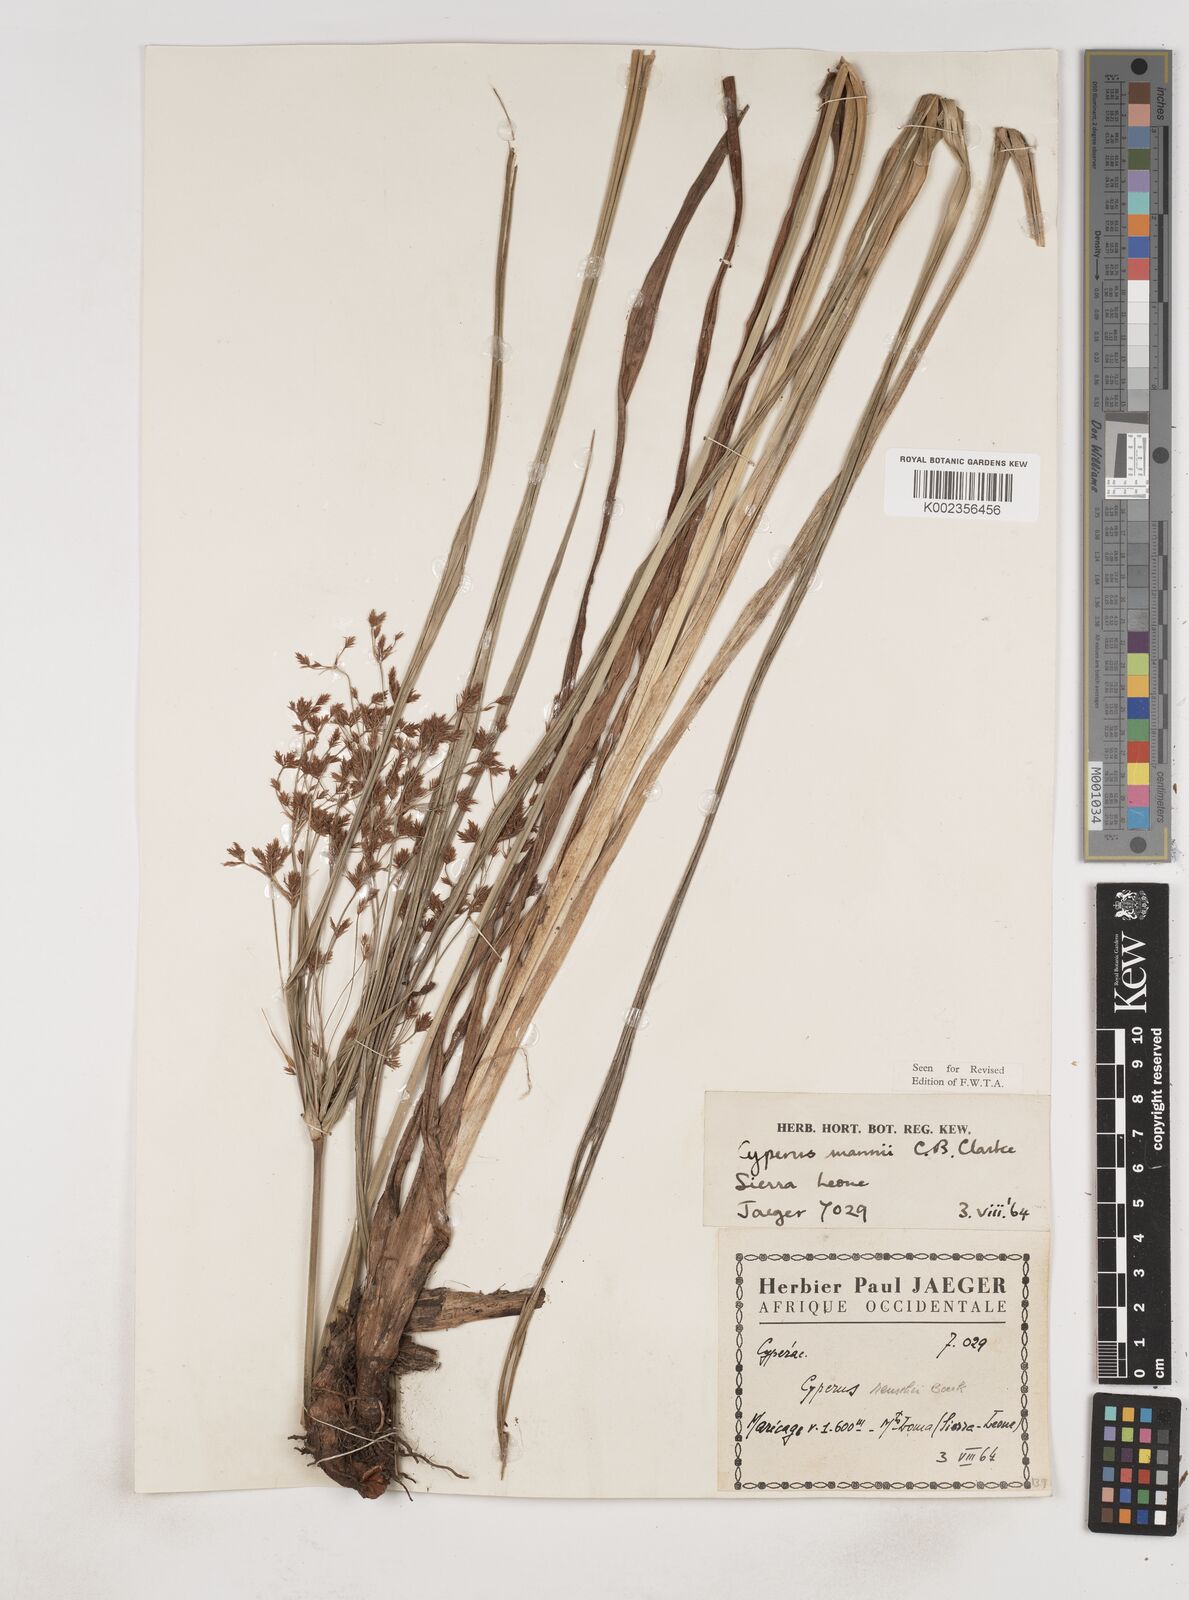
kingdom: Plantae
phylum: Tracheophyta
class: Liliopsida
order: Poales
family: Cyperaceae
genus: Cyperus
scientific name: Cyperus baronii
